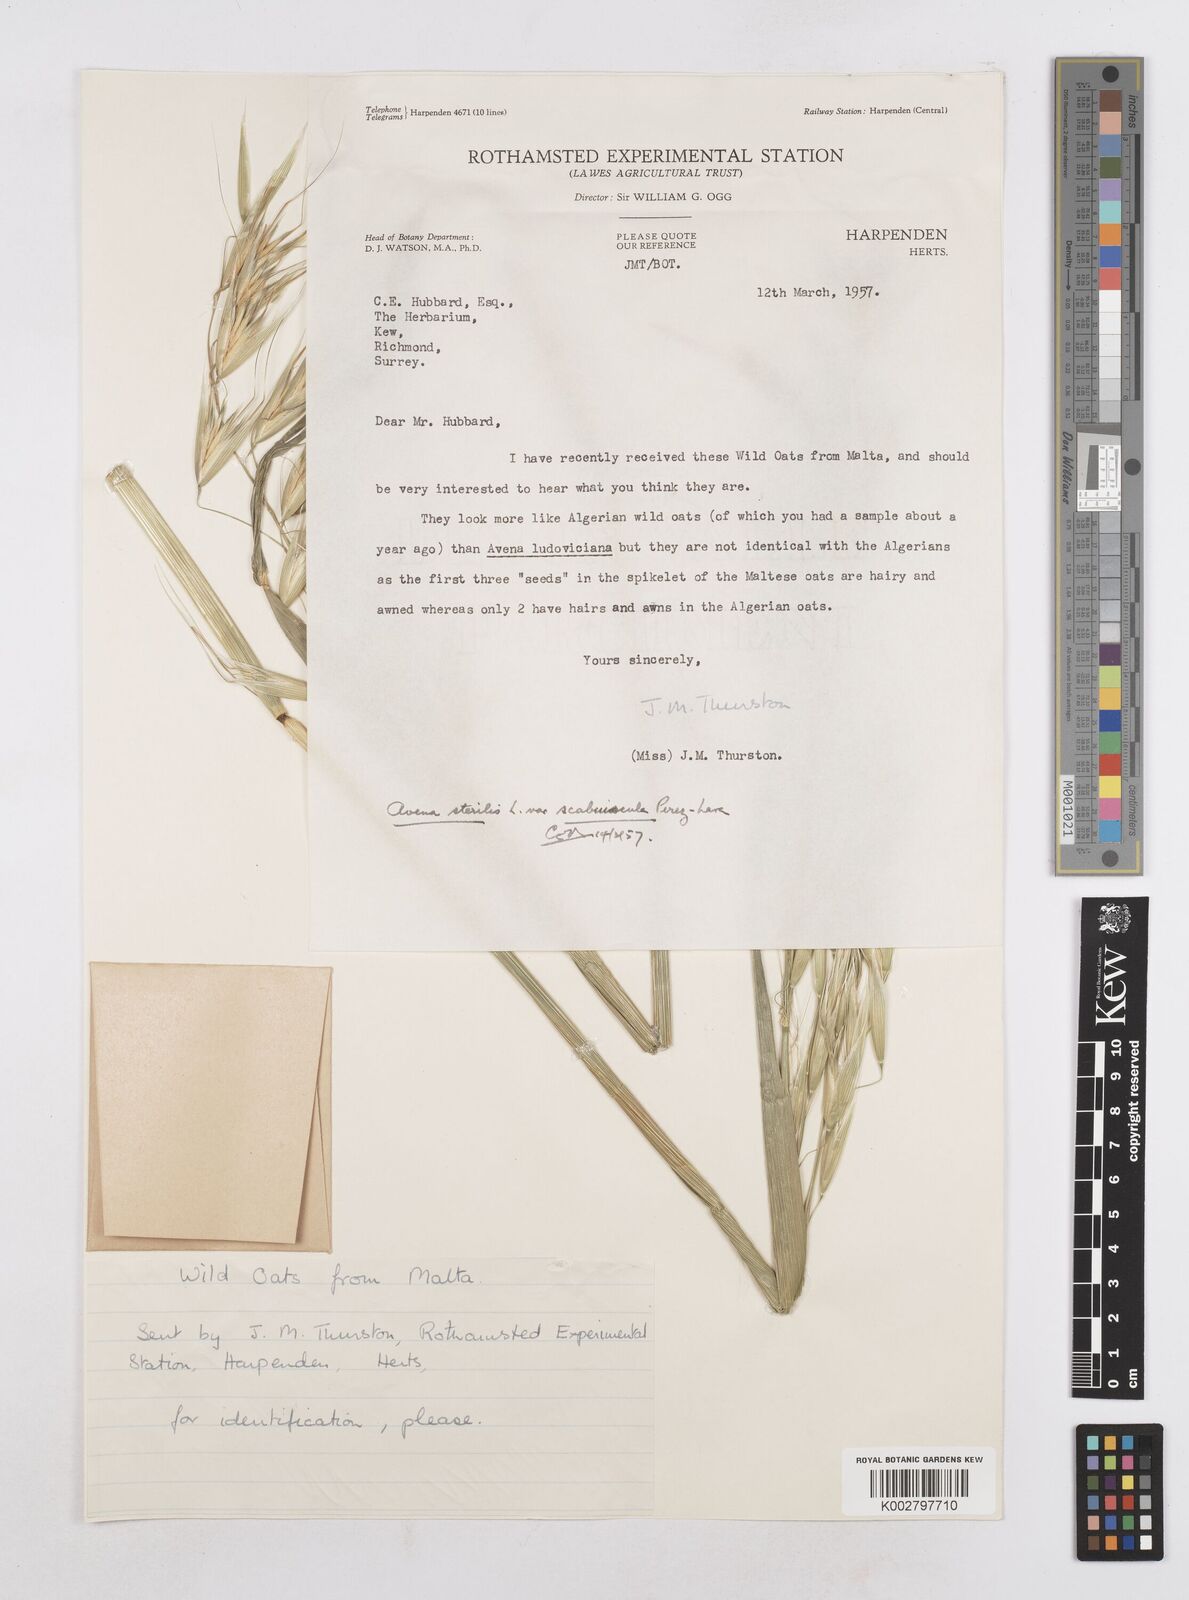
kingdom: Plantae
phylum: Tracheophyta
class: Liliopsida
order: Poales
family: Poaceae
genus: Avena
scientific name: Avena sterilis
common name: Animated oat
